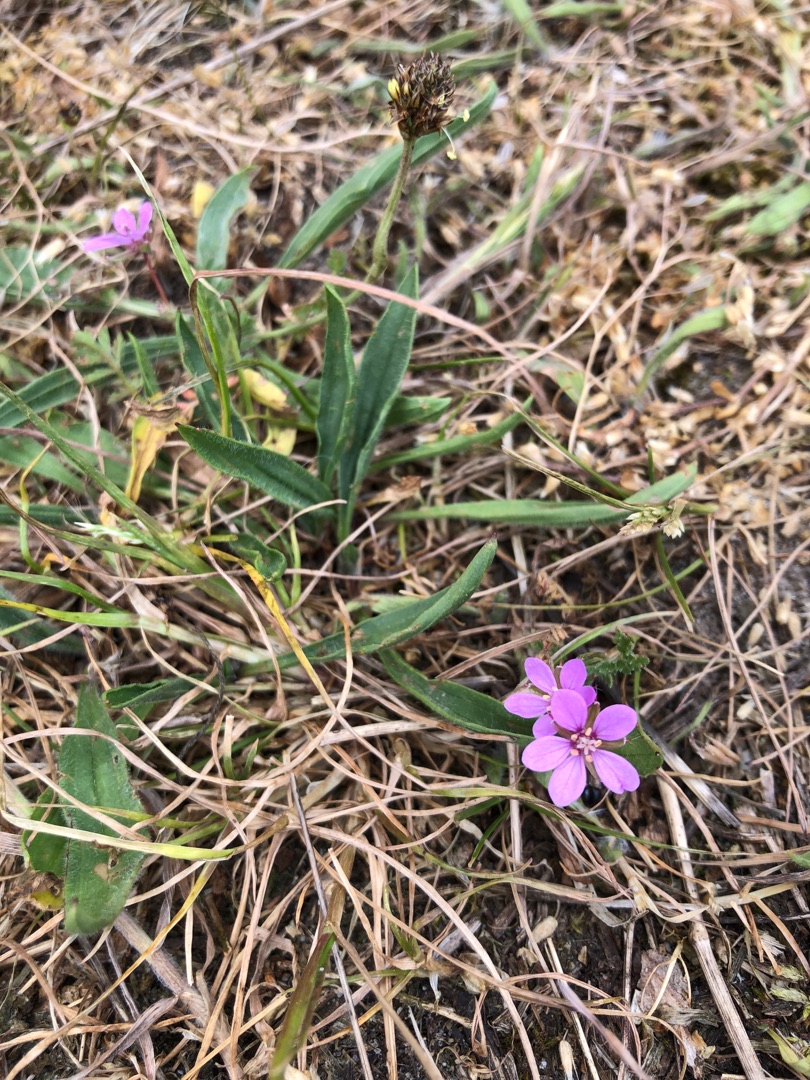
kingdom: Plantae
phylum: Tracheophyta
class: Magnoliopsida
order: Geraniales
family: Geraniaceae
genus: Erodium
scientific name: Erodium cicutarium
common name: Hejrenæb
